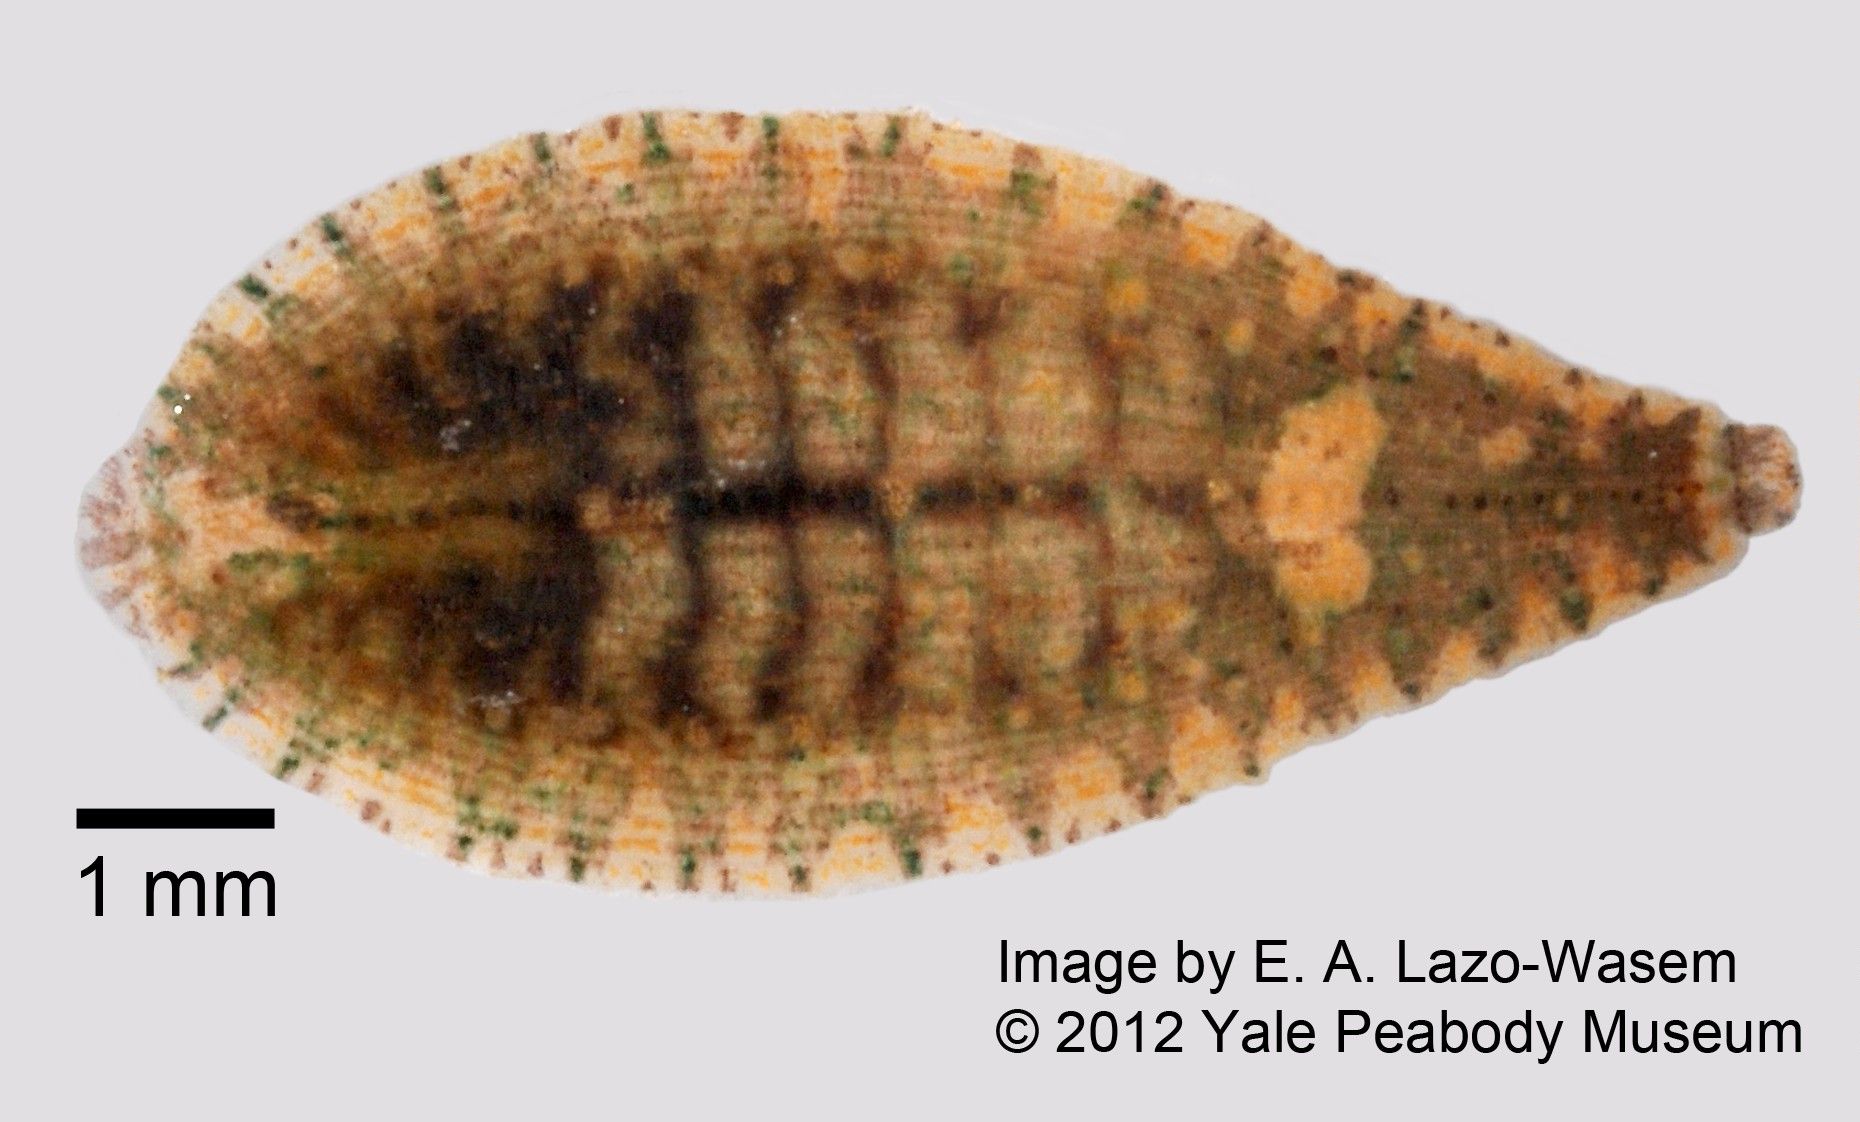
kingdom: Animalia
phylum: Annelida
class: Clitellata
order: Rhynchobdellida
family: Glossiphoniidae
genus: Placobdella
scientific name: Placobdella ornata
